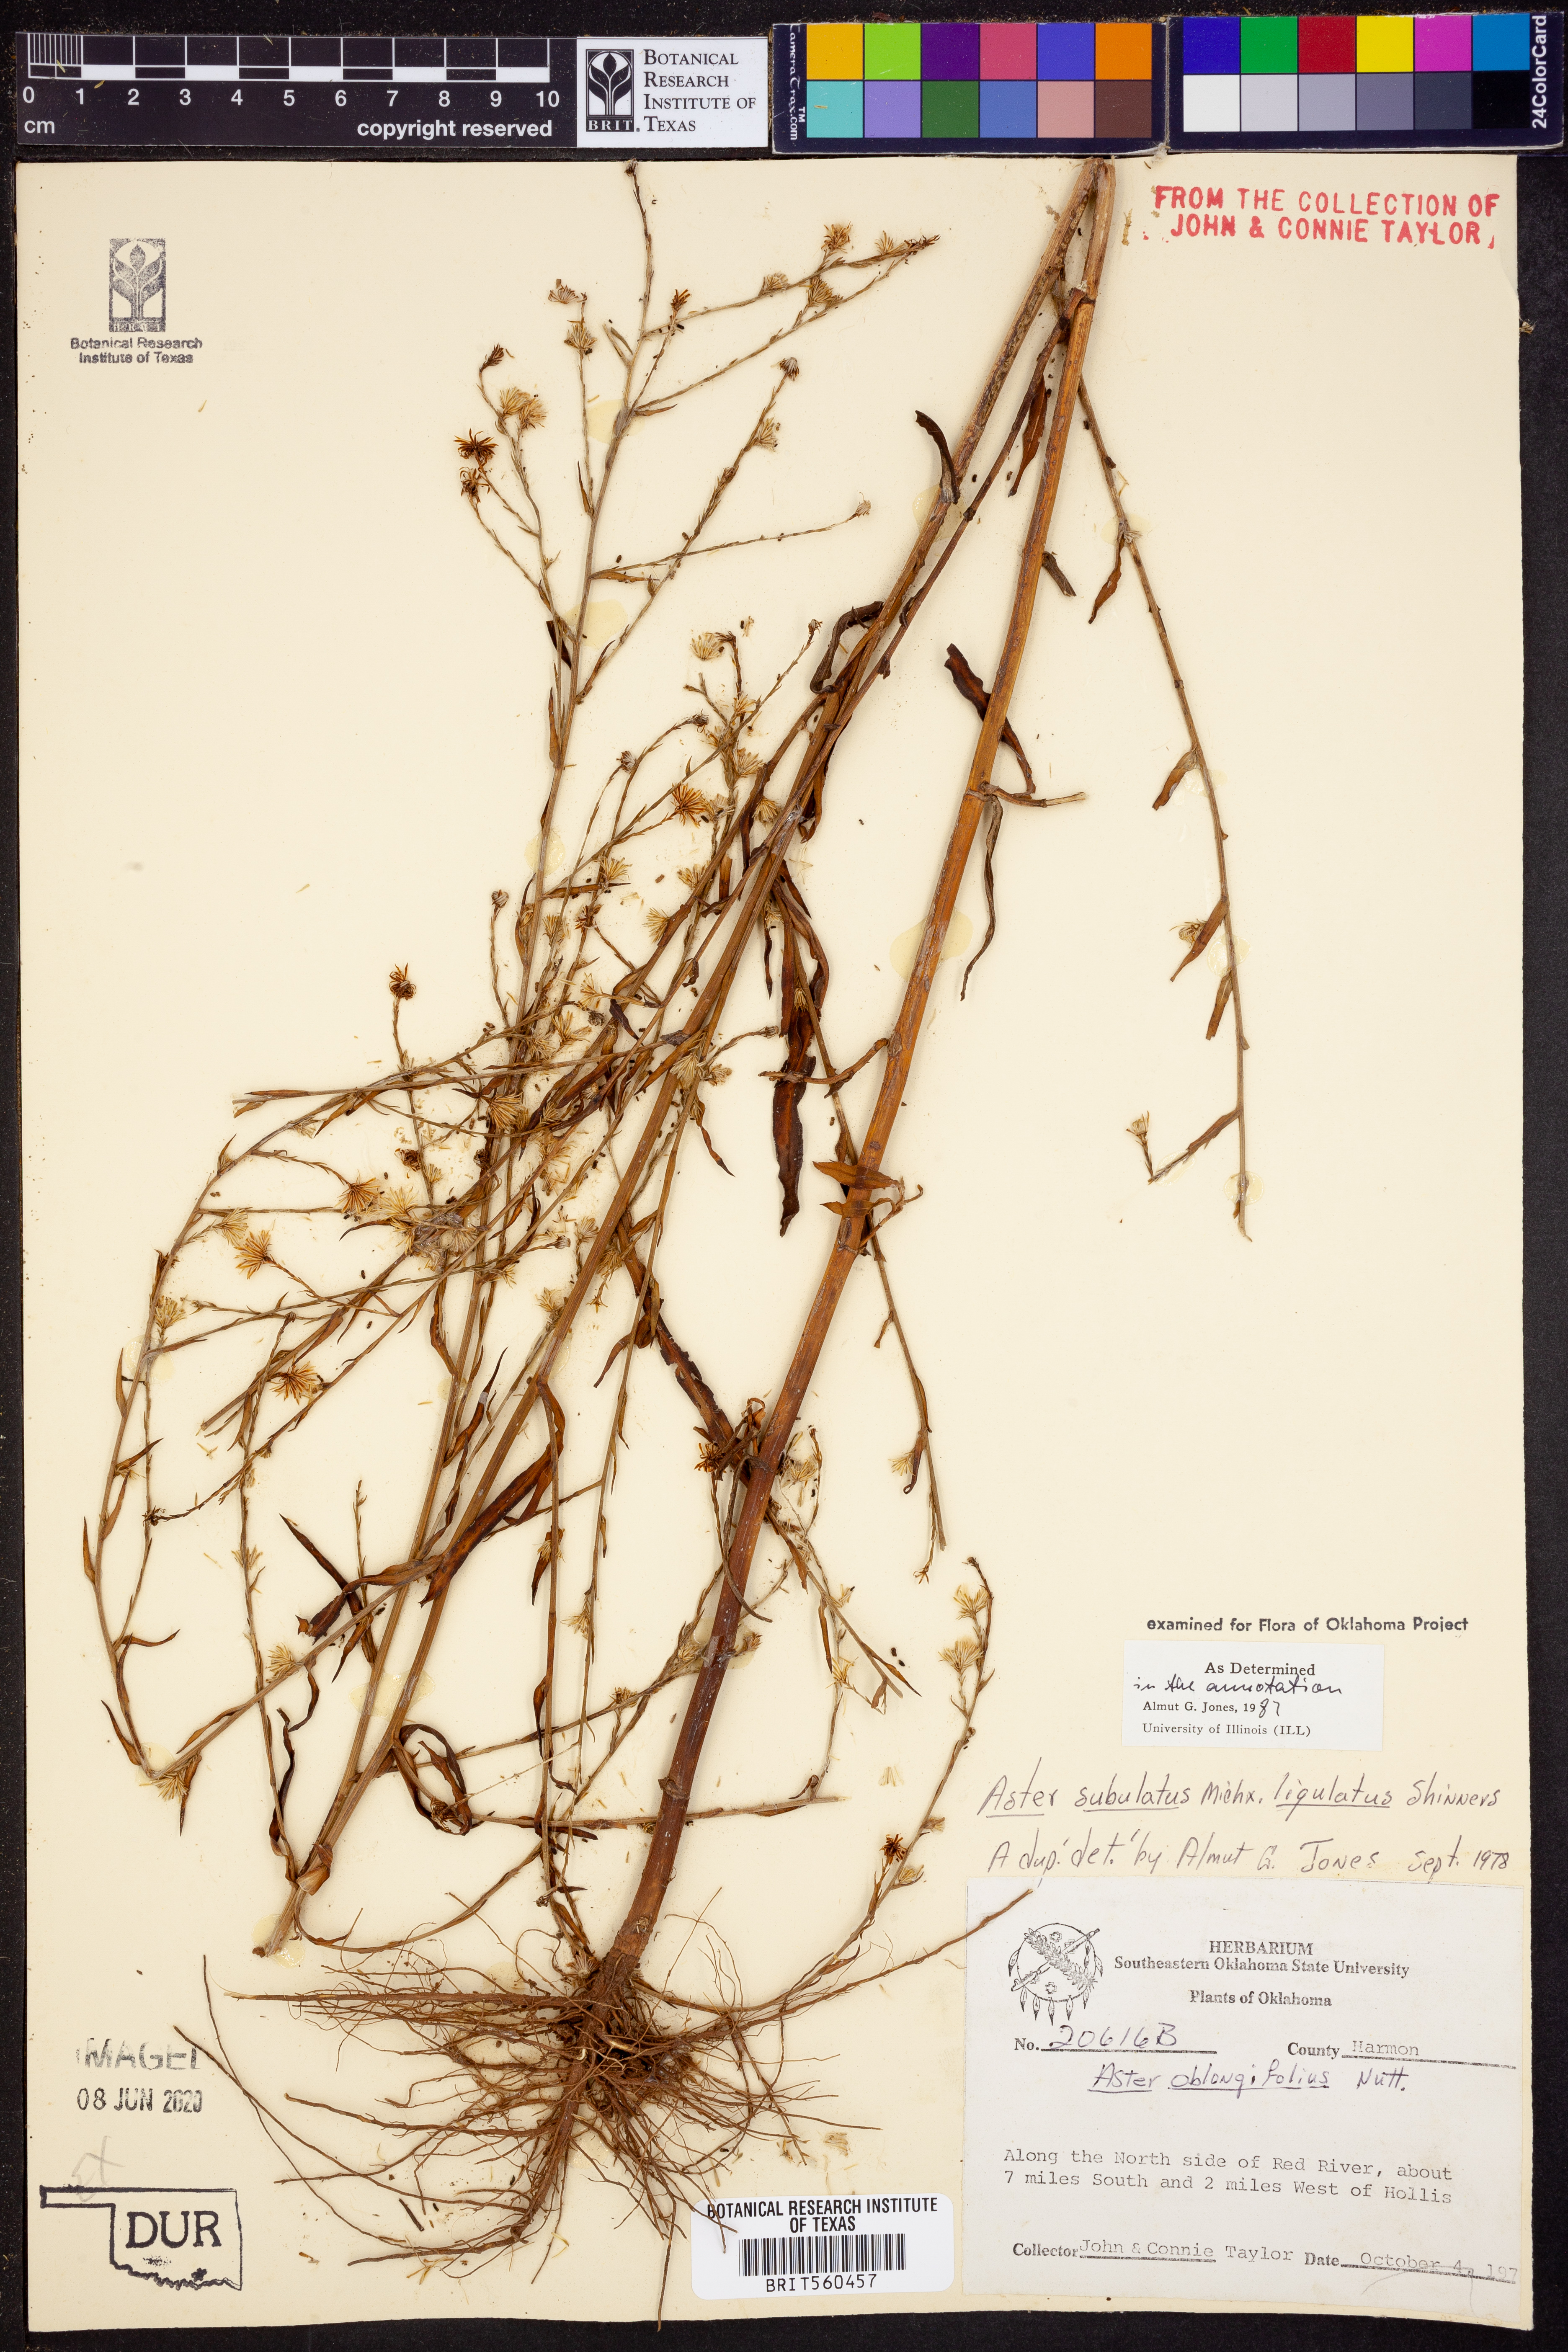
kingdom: Plantae
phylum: Tracheophyta
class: Magnoliopsida
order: Asterales
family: Asteraceae
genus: Symphyotrichum
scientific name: Symphyotrichum divaricatum
